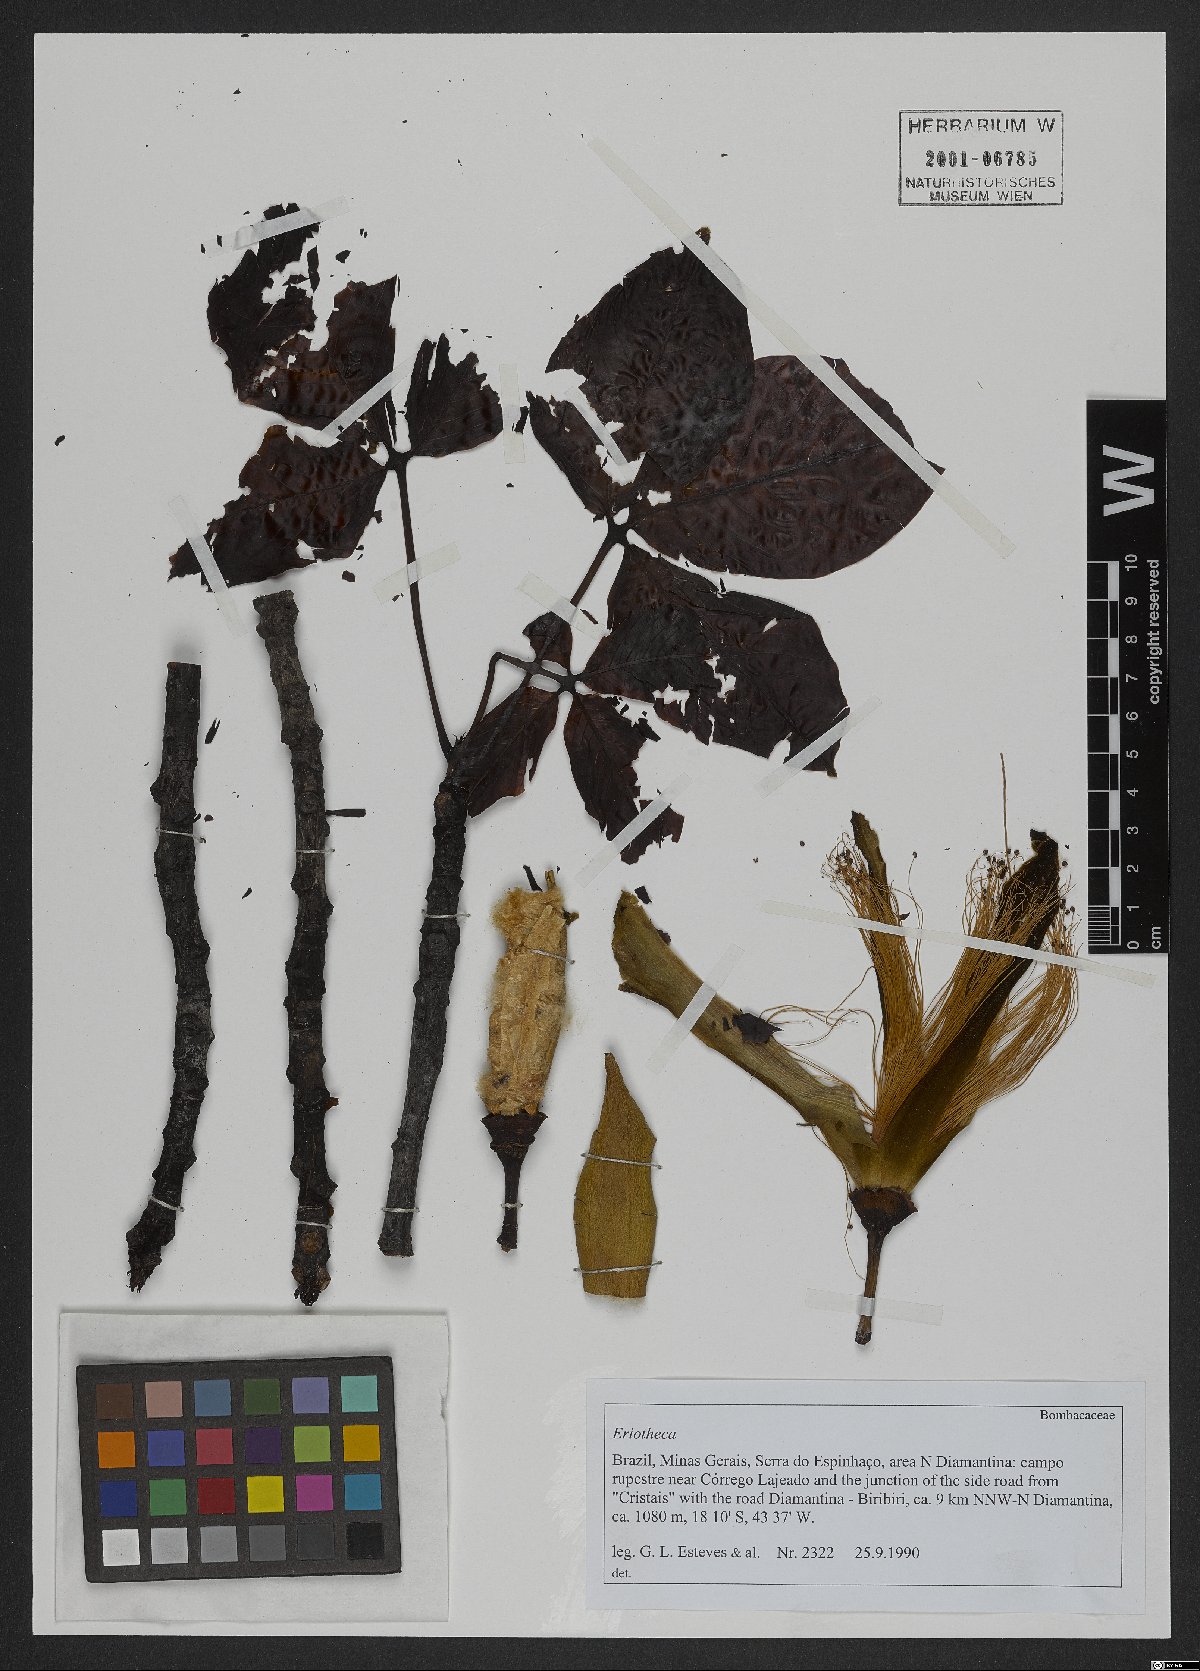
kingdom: Plantae
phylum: Tracheophyta
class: Magnoliopsida
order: Malvales
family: Malvaceae
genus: Eriotheca
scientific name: Eriotheca
